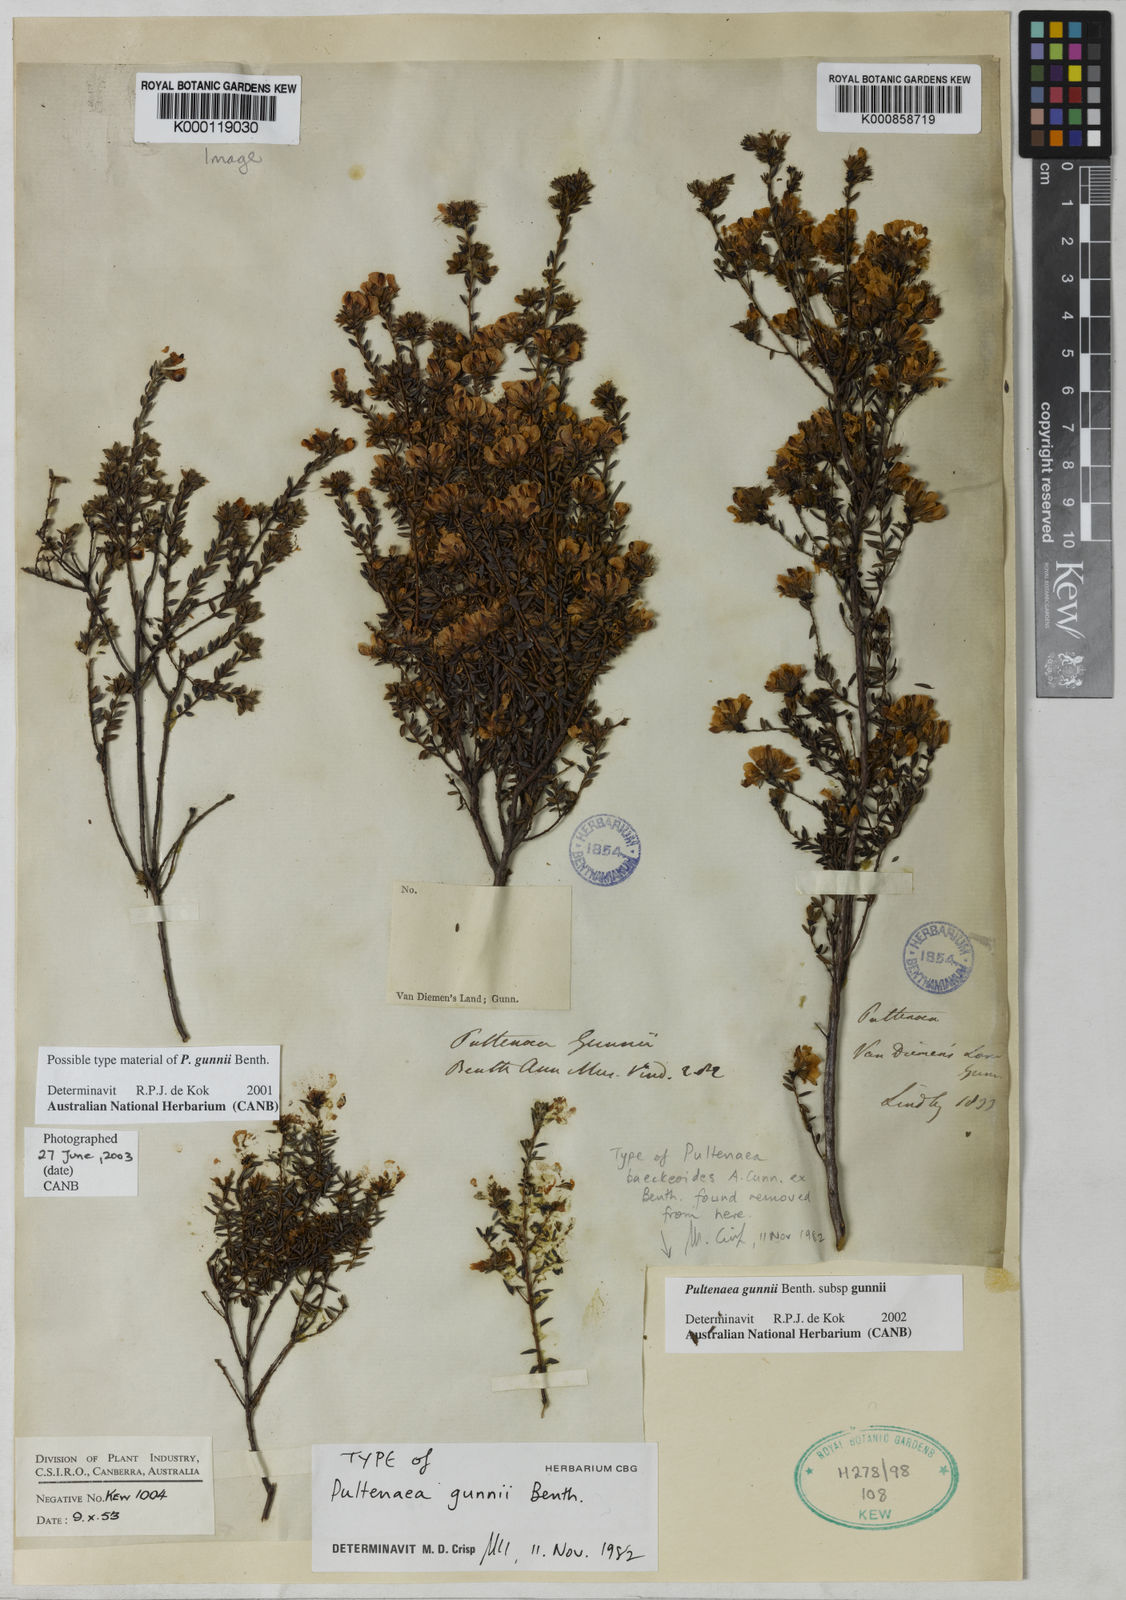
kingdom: Plantae
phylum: Tracheophyta
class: Magnoliopsida
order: Fabales
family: Fabaceae
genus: Pultenaea
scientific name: Pultenaea gunnii
